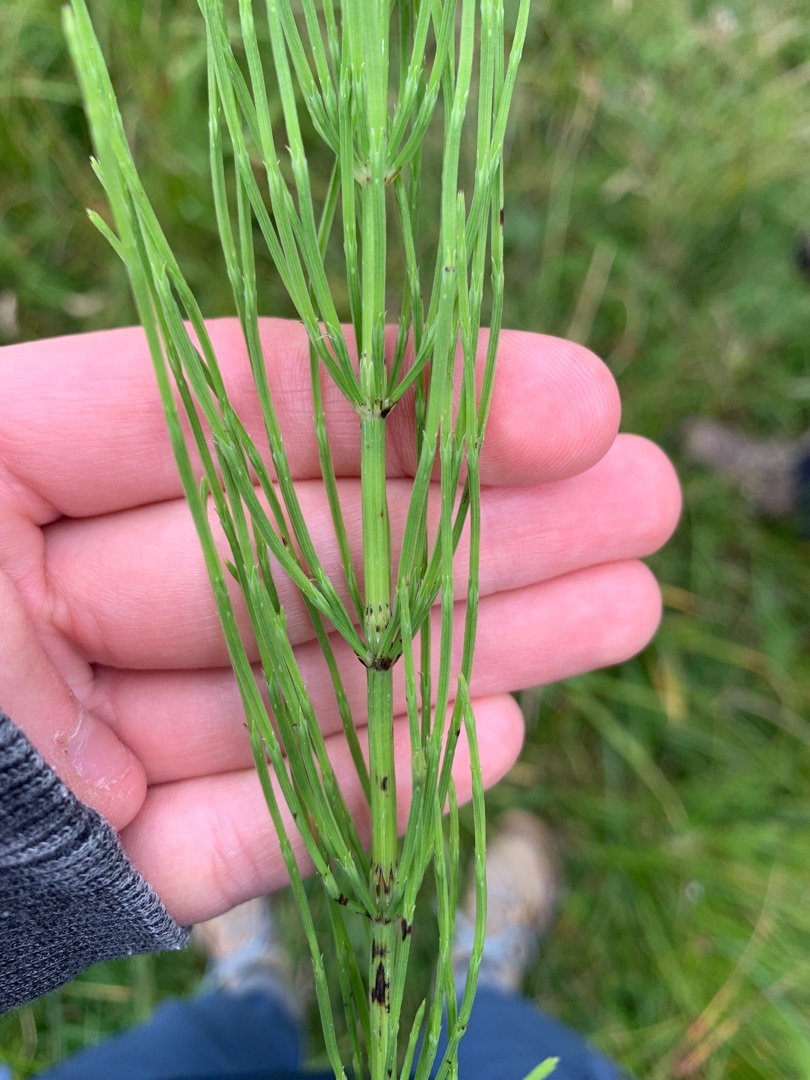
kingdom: Plantae
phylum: Tracheophyta
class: Polypodiopsida
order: Equisetales
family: Equisetaceae
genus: Equisetum
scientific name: Equisetum arvense
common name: Ager-padderok
